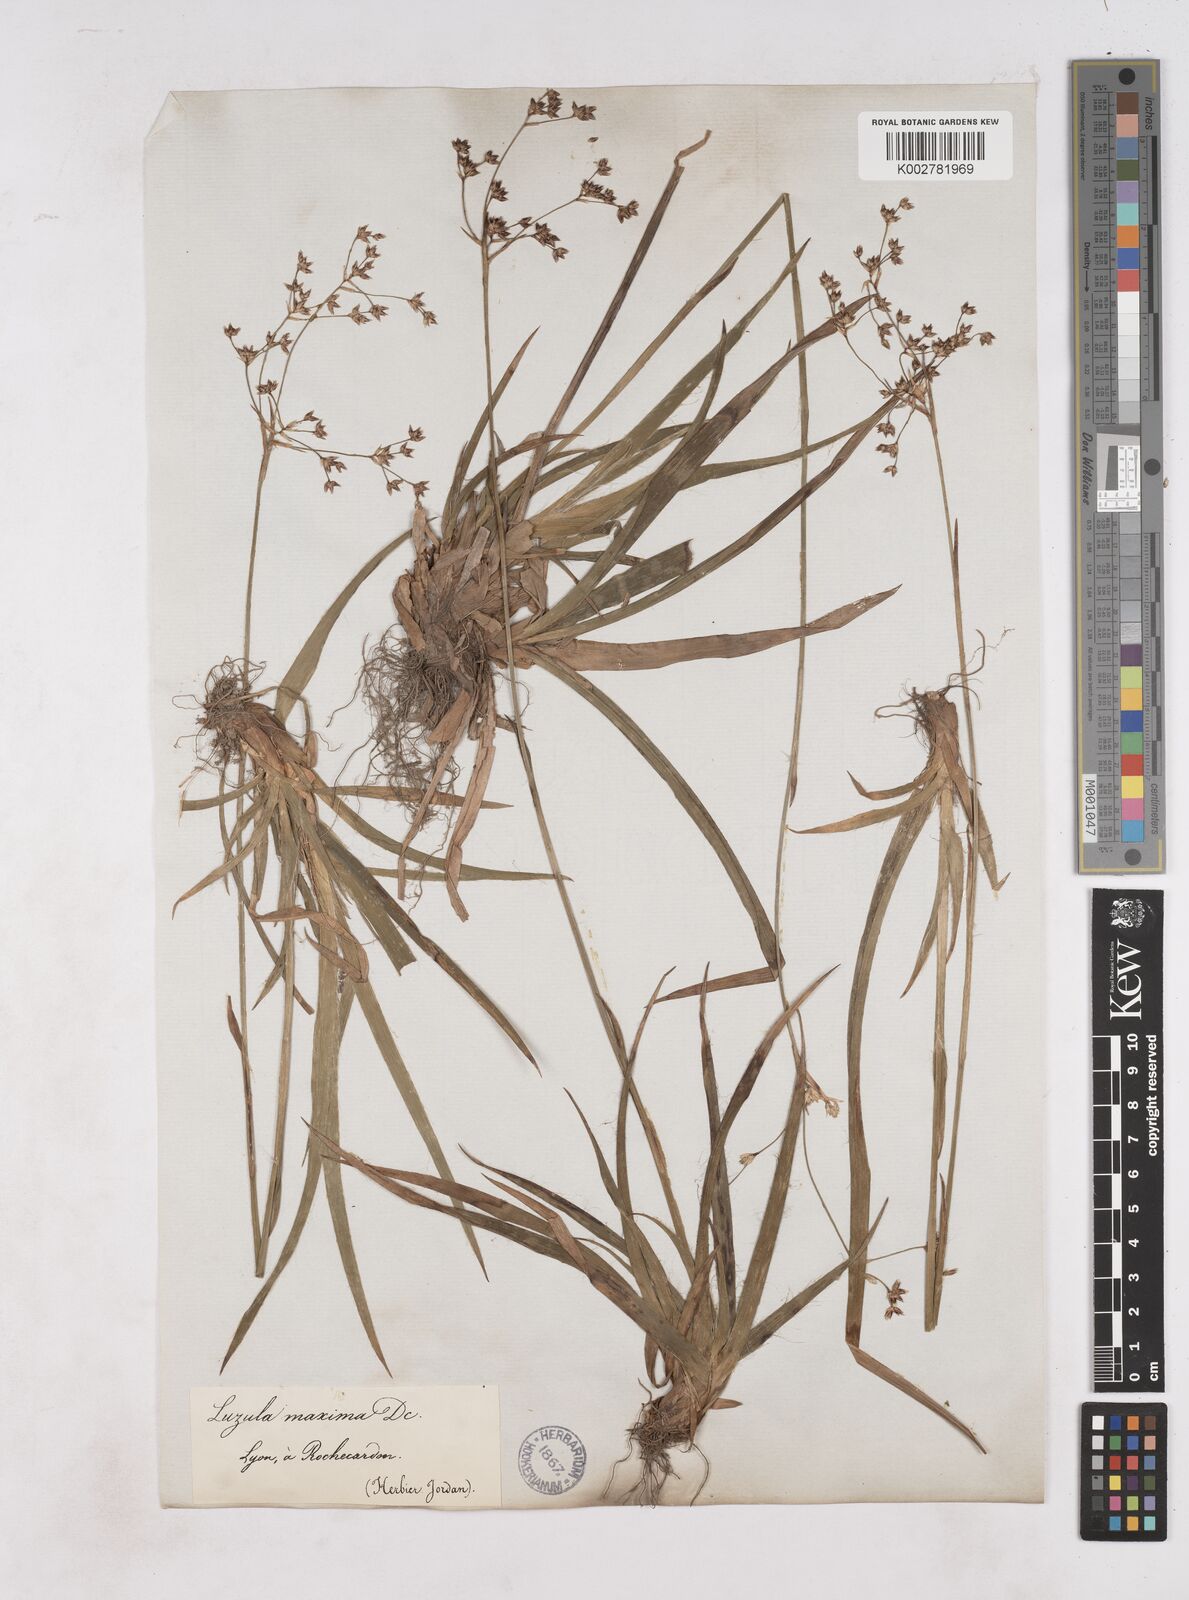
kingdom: Plantae
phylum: Tracheophyta
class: Liliopsida
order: Poales
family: Juncaceae
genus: Luzula
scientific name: Luzula sylvatica
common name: Great wood-rush
